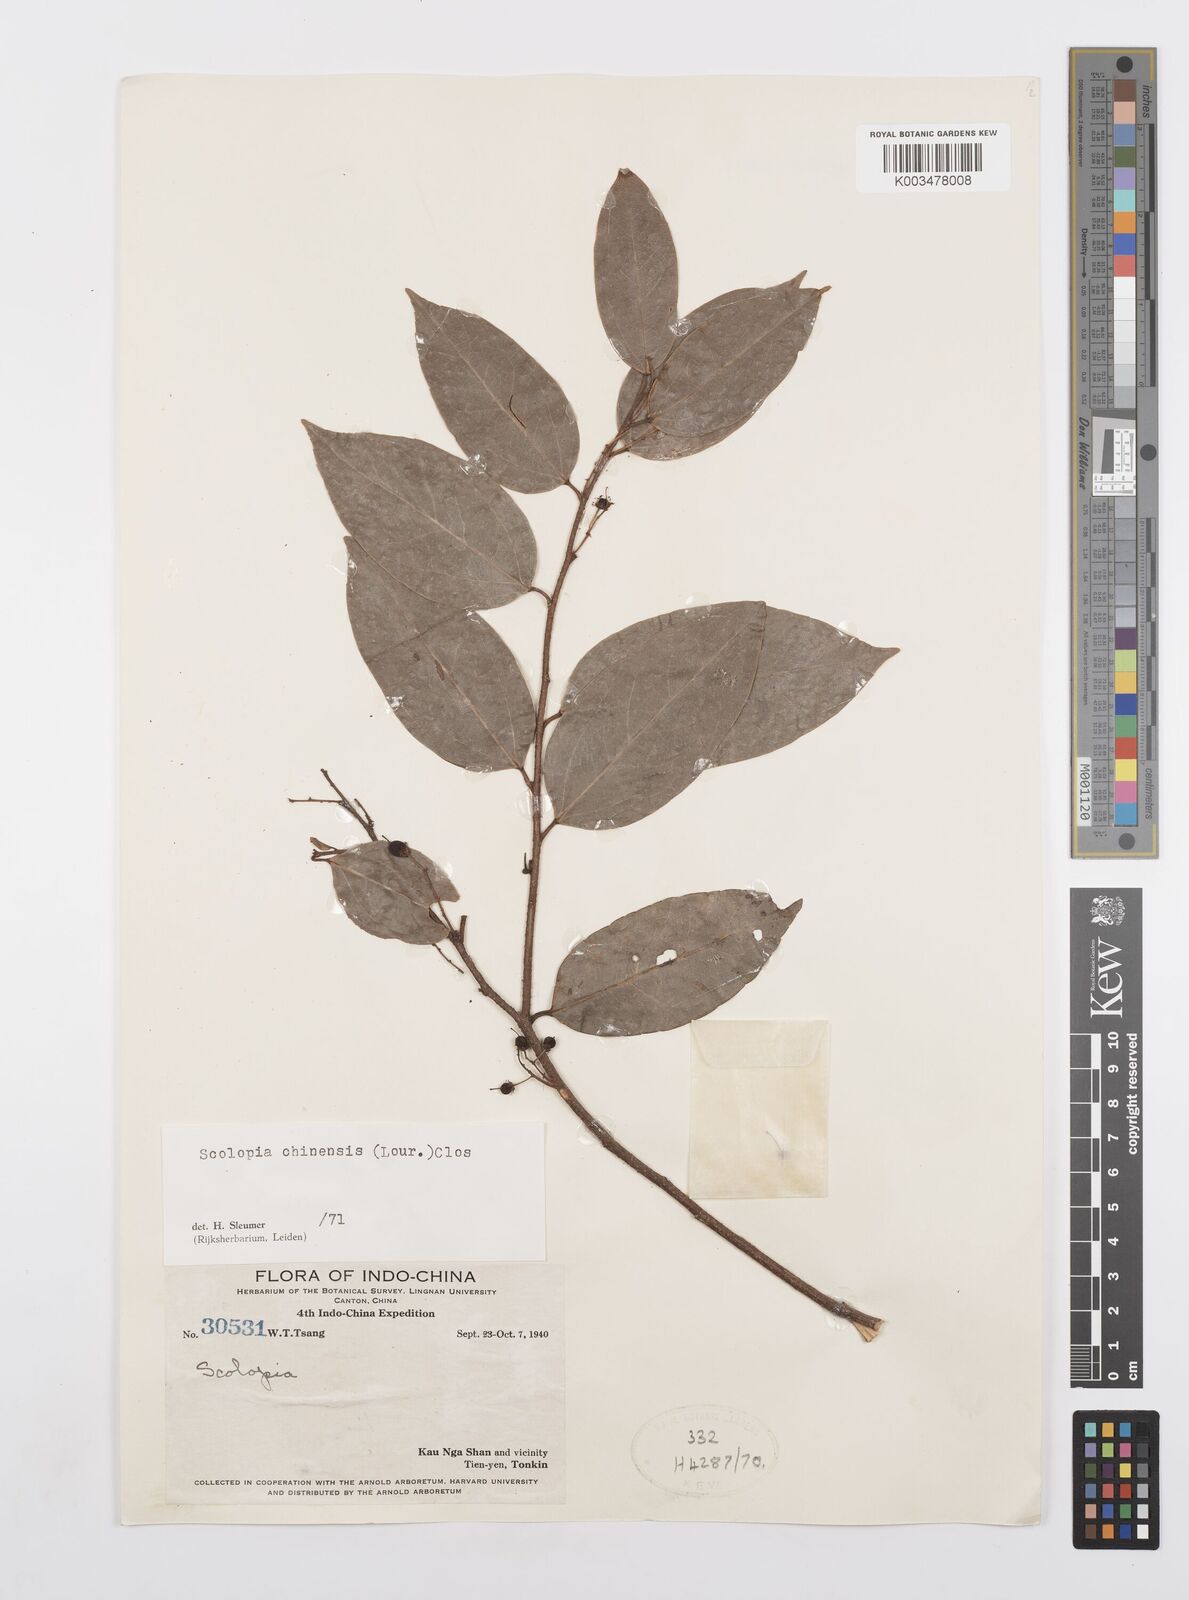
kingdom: Plantae
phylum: Tracheophyta
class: Magnoliopsida
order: Malpighiales
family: Salicaceae
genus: Scolopia
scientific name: Scolopia chinensis
